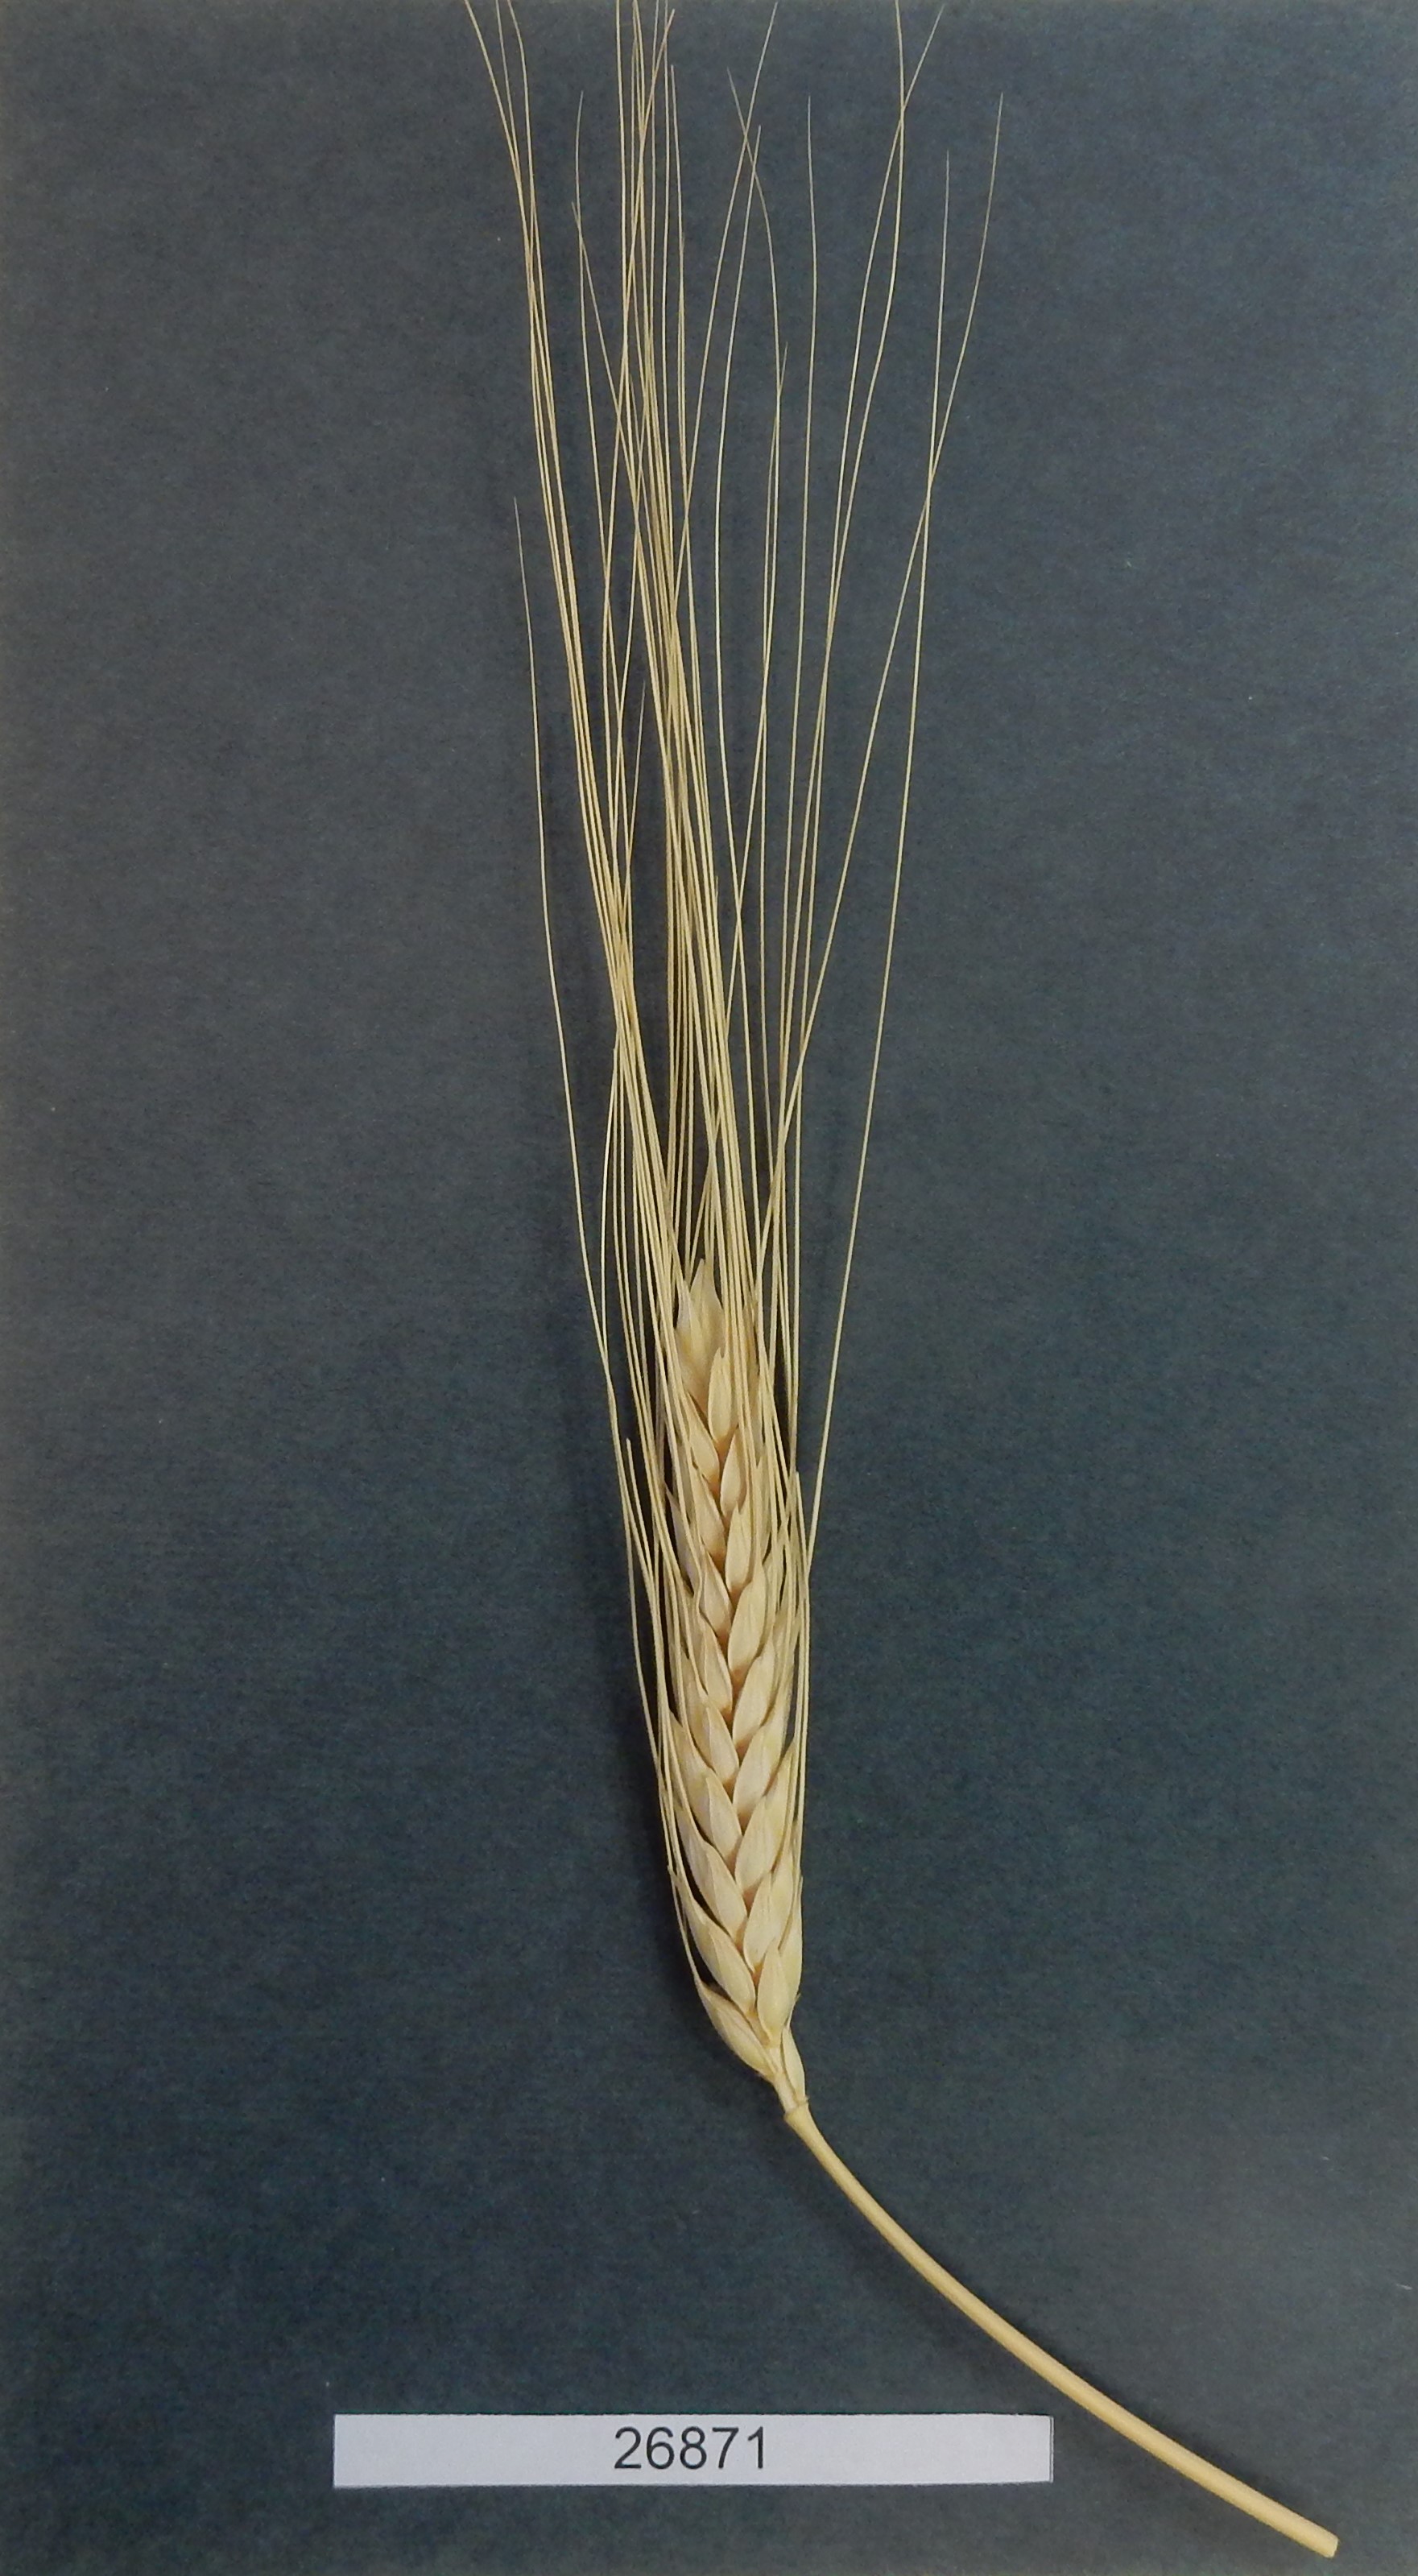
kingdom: Plantae
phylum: Tracheophyta
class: Liliopsida
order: Poales
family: Poaceae
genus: Triticum
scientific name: Triticum
